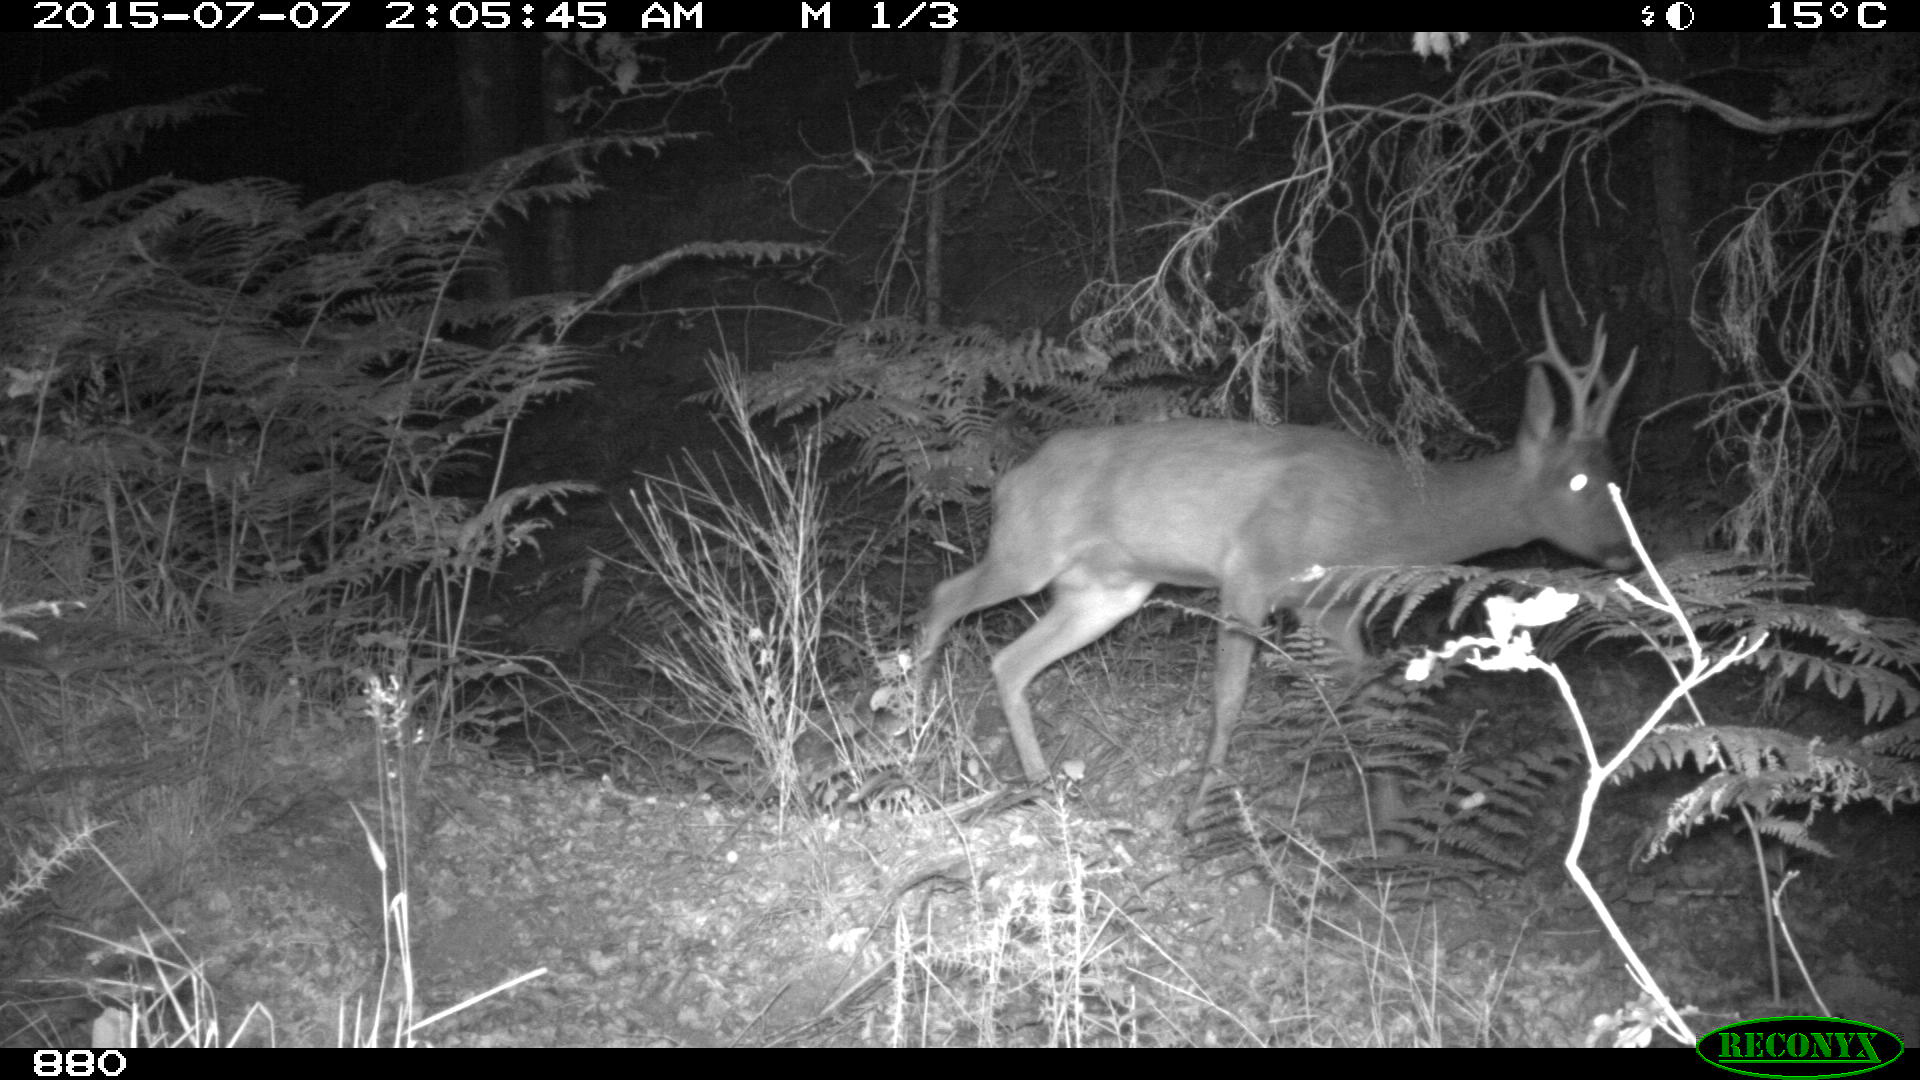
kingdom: Animalia
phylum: Chordata
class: Mammalia
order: Artiodactyla
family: Cervidae
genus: Capreolus
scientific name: Capreolus capreolus
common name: Western roe deer
